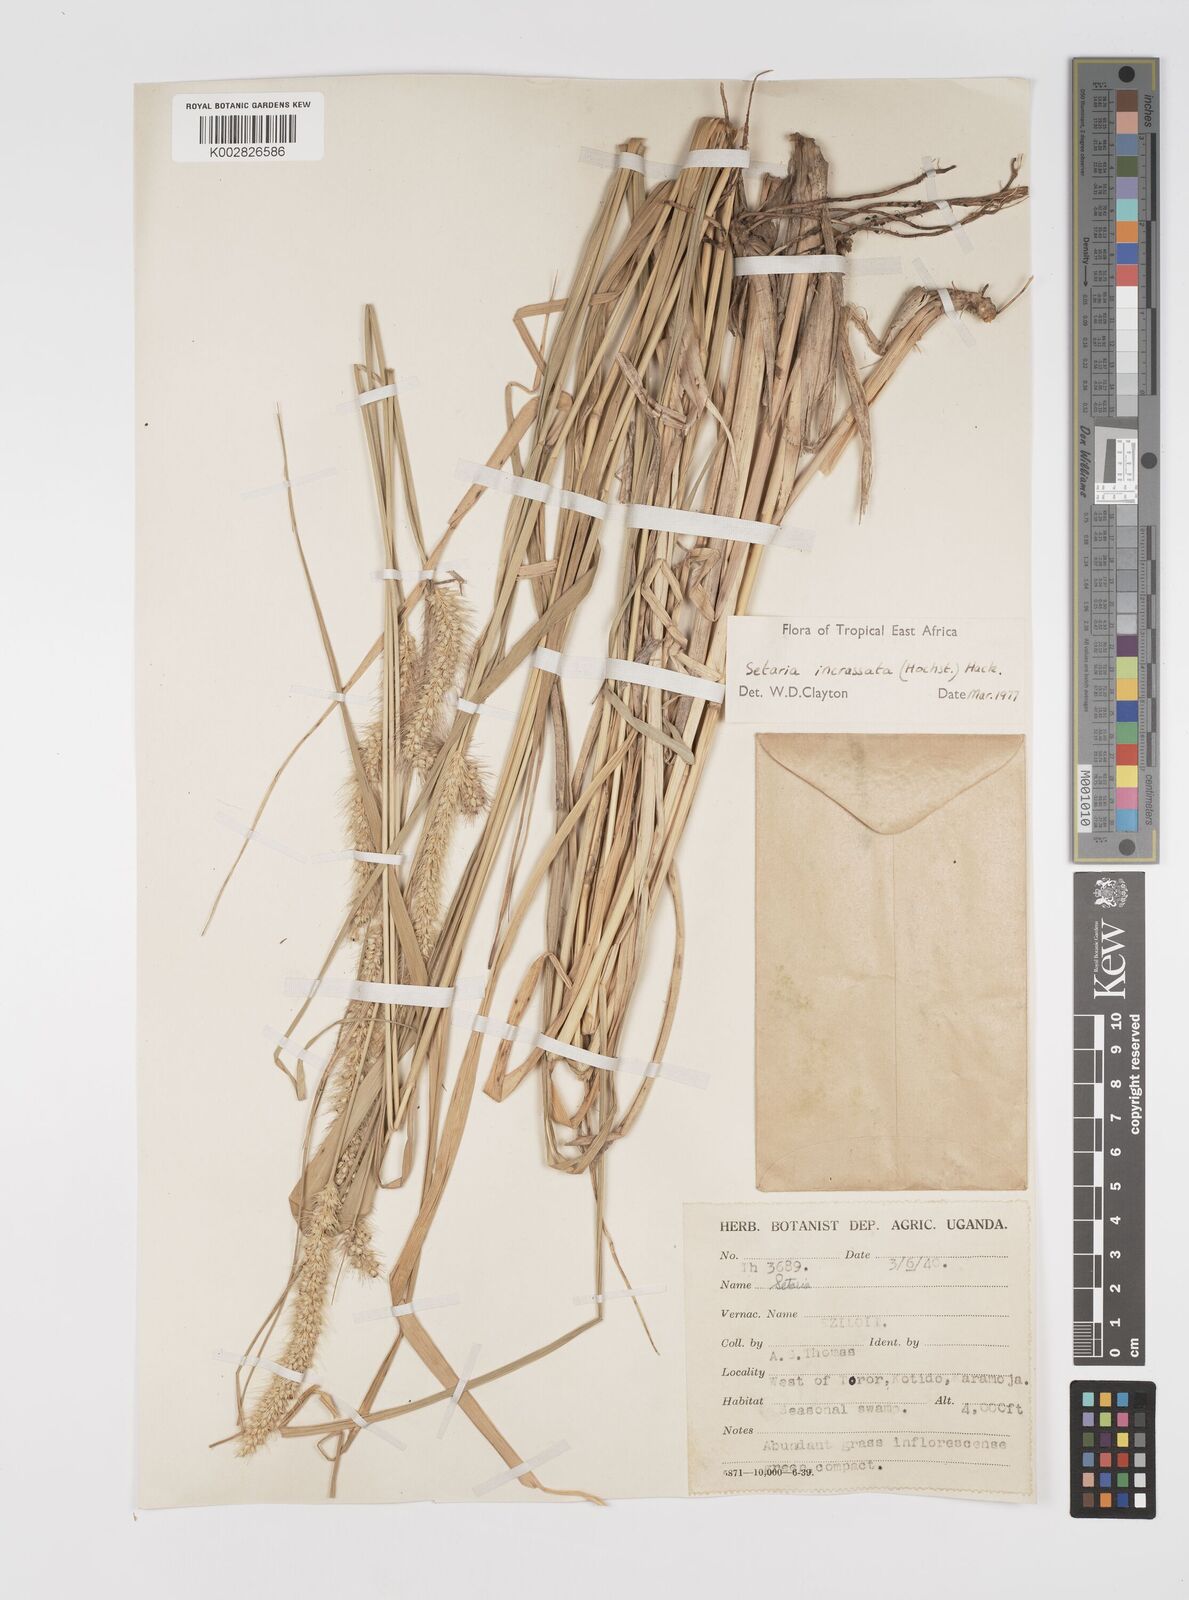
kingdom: Plantae
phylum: Tracheophyta
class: Liliopsida
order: Poales
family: Poaceae
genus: Setaria
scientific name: Setaria incrassata
